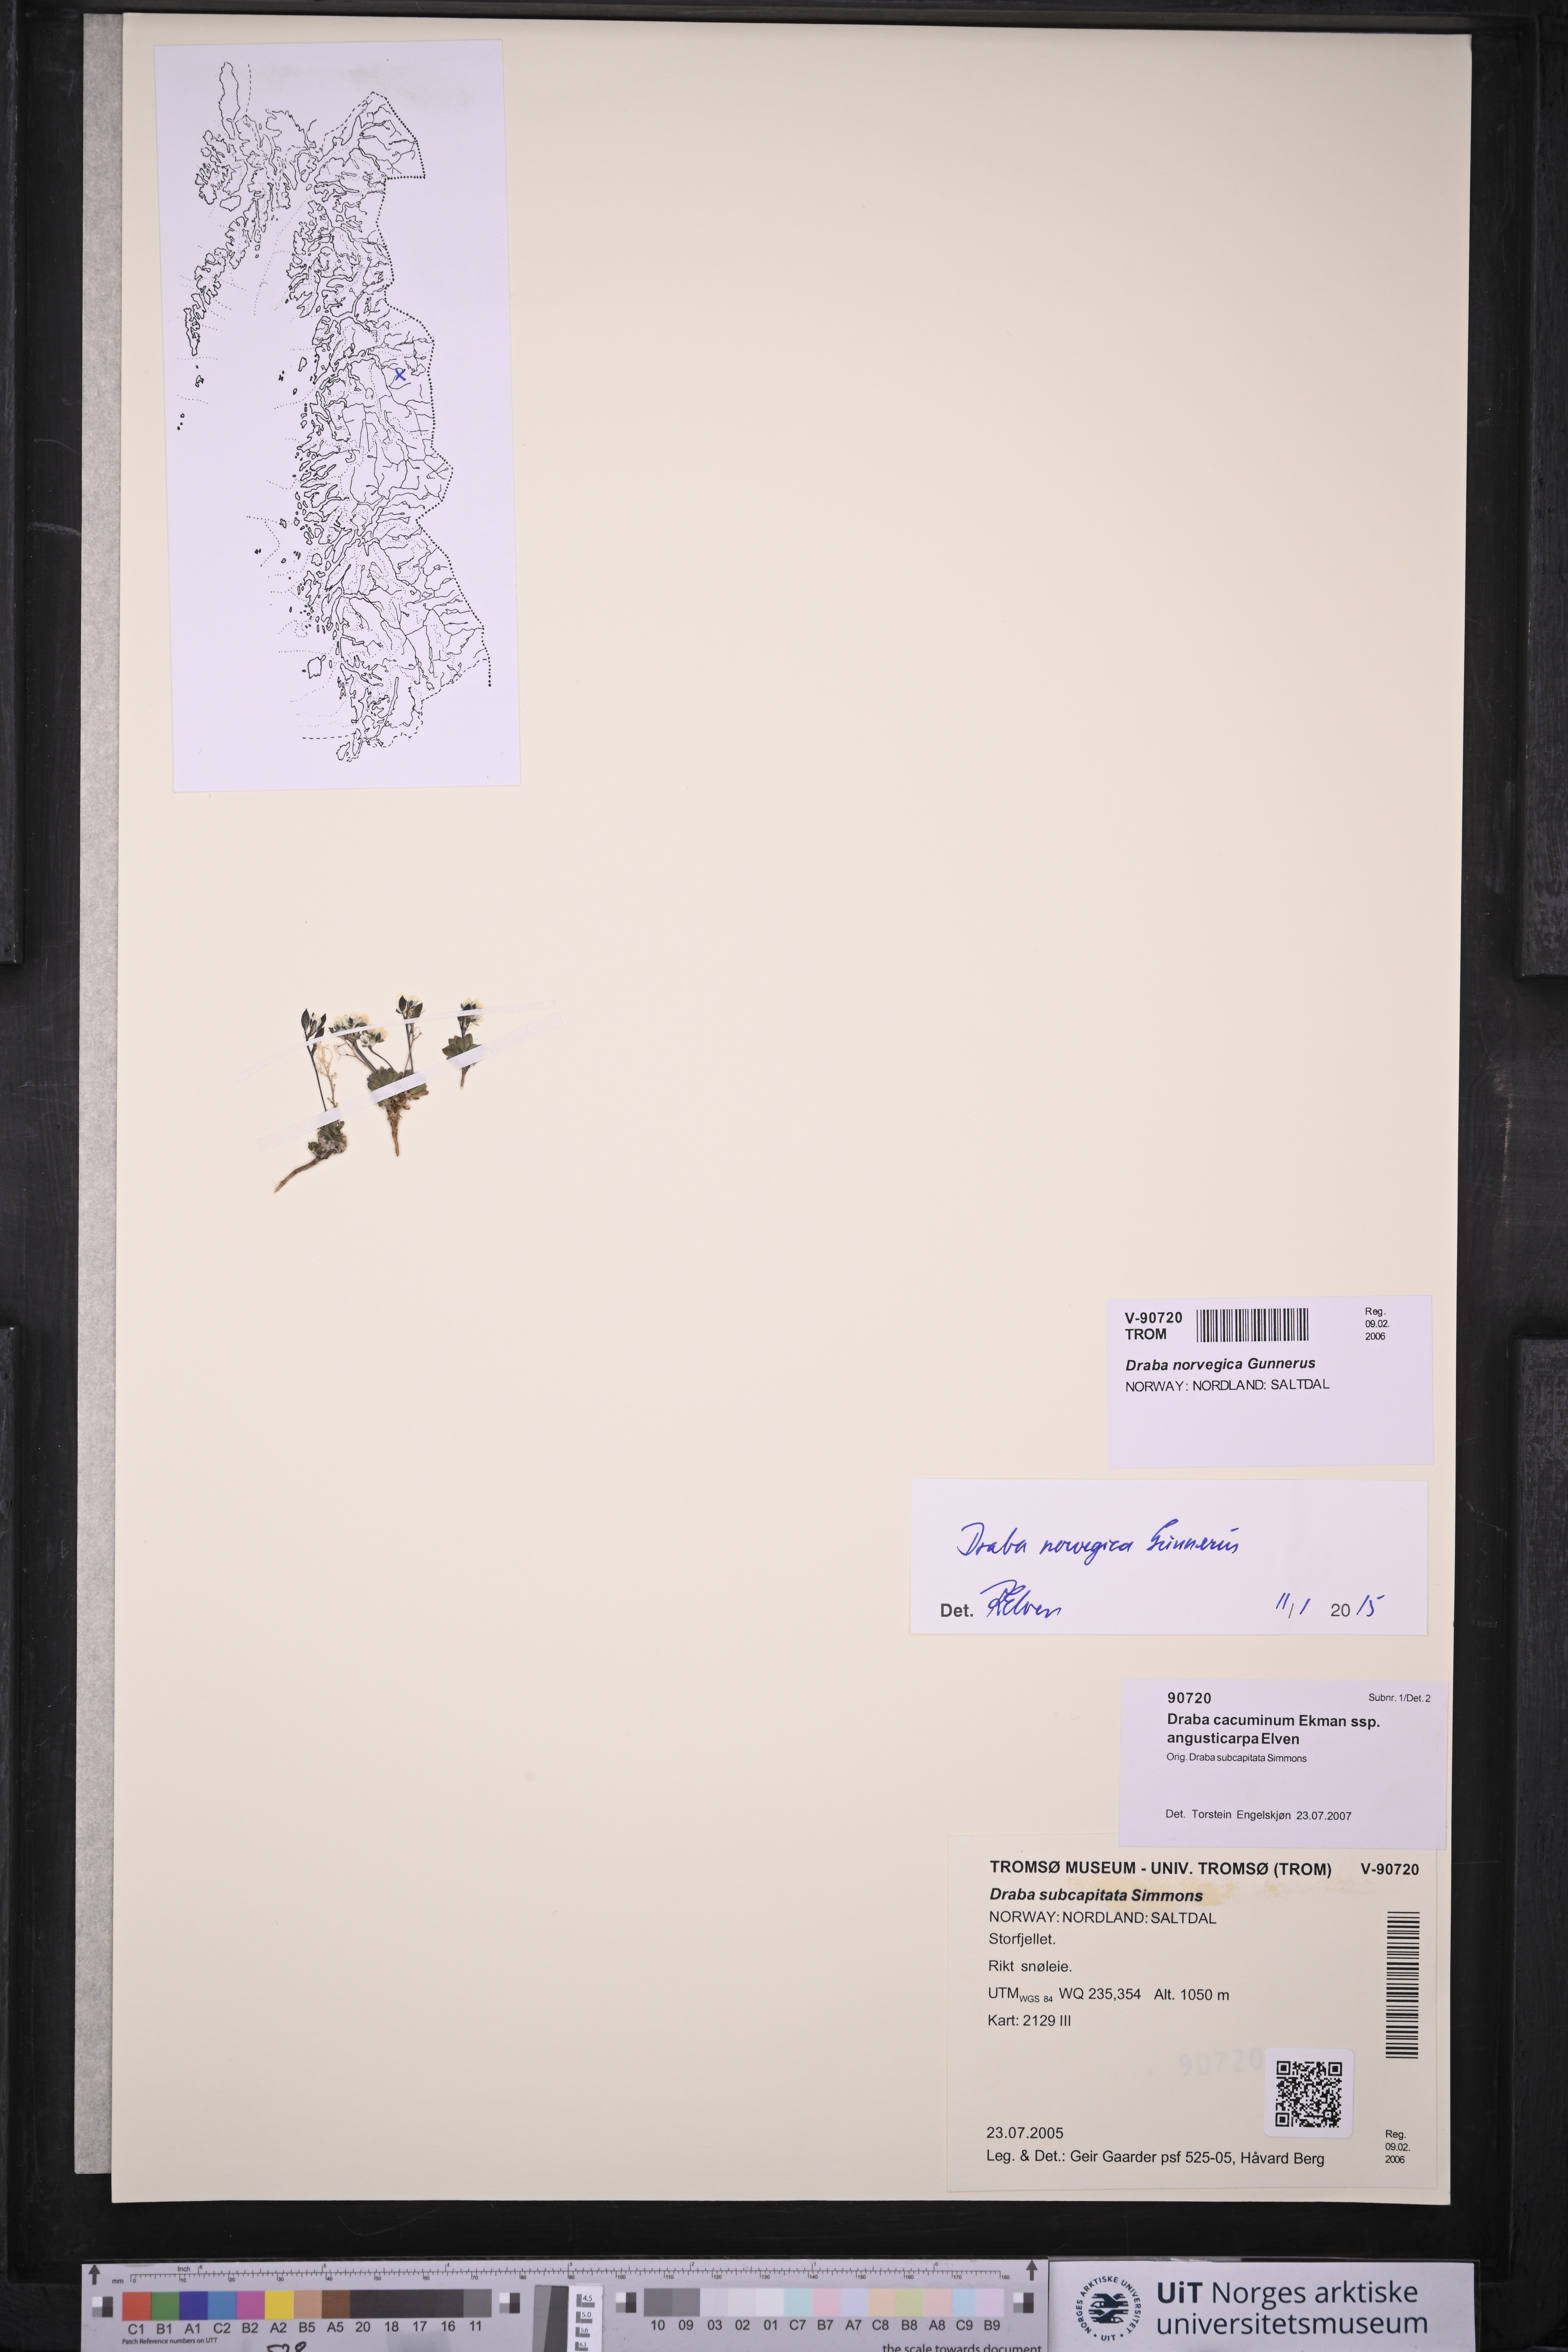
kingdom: Plantae
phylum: Tracheophyta
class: Magnoliopsida
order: Brassicales
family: Brassicaceae
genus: Draba
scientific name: Draba norvegica
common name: Rock whitlowgrass
